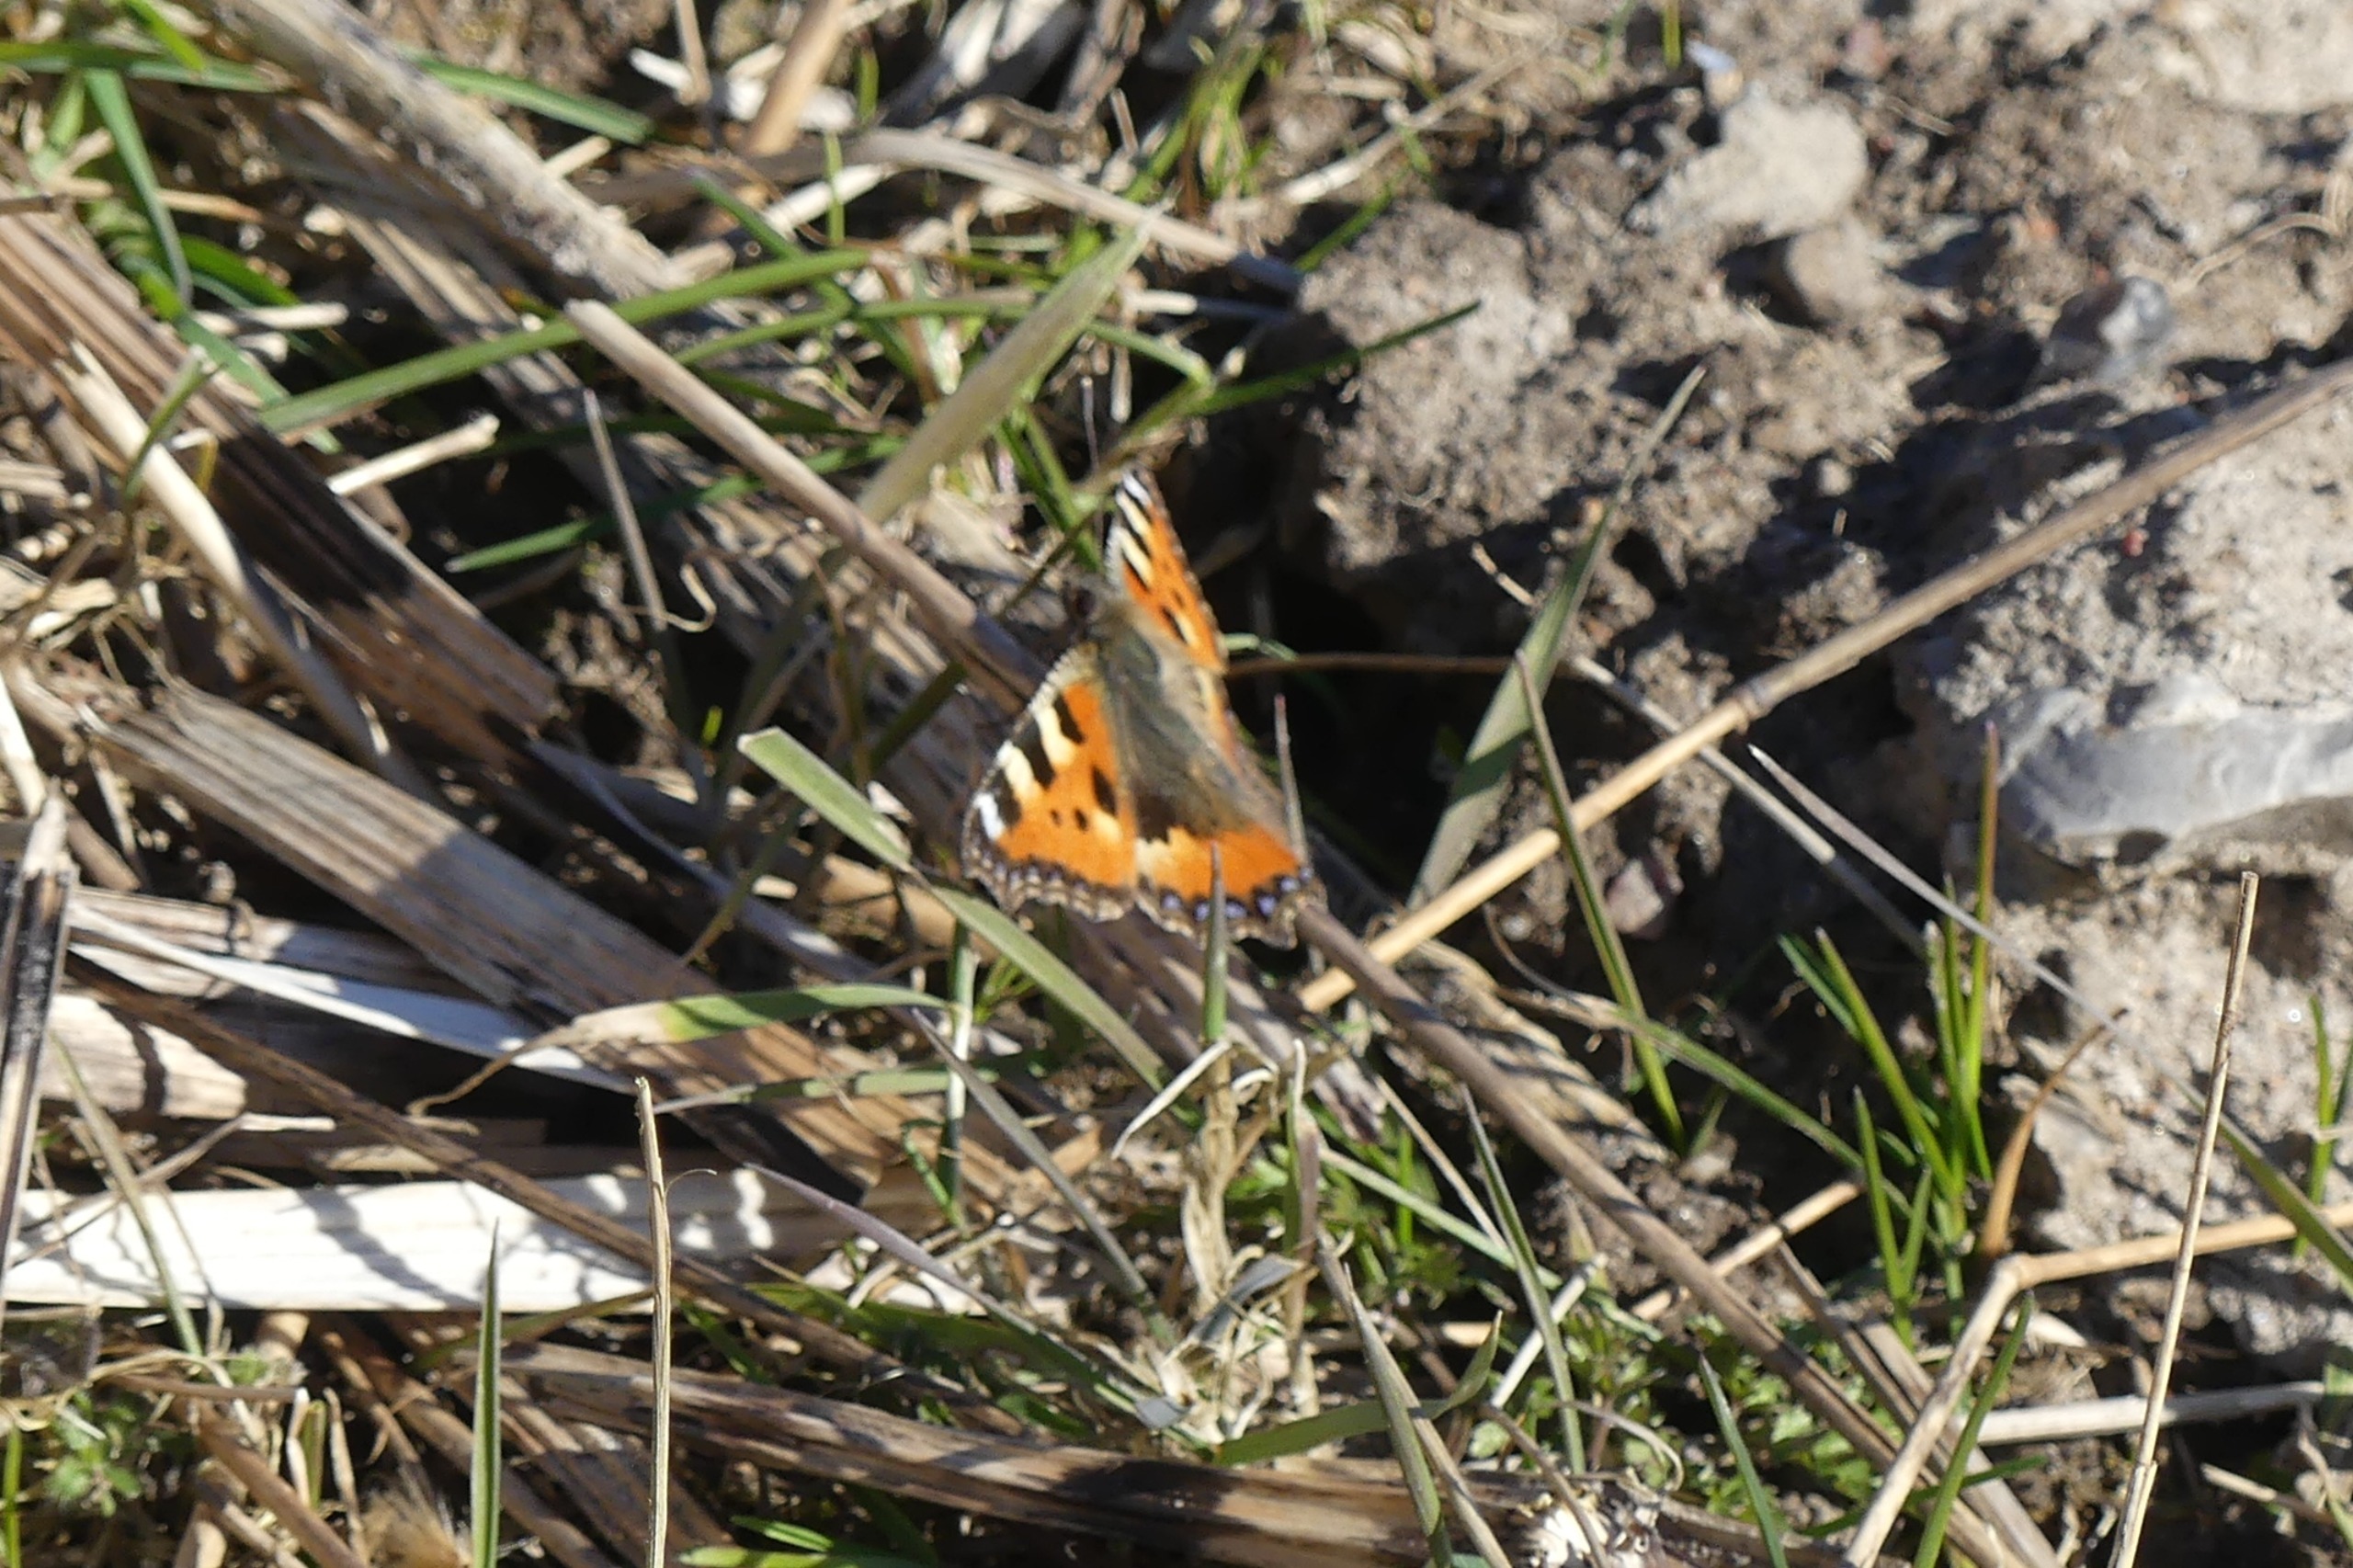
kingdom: Animalia
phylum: Arthropoda
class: Insecta
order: Lepidoptera
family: Nymphalidae
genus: Aglais
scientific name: Aglais urticae
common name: Nældens takvinge
